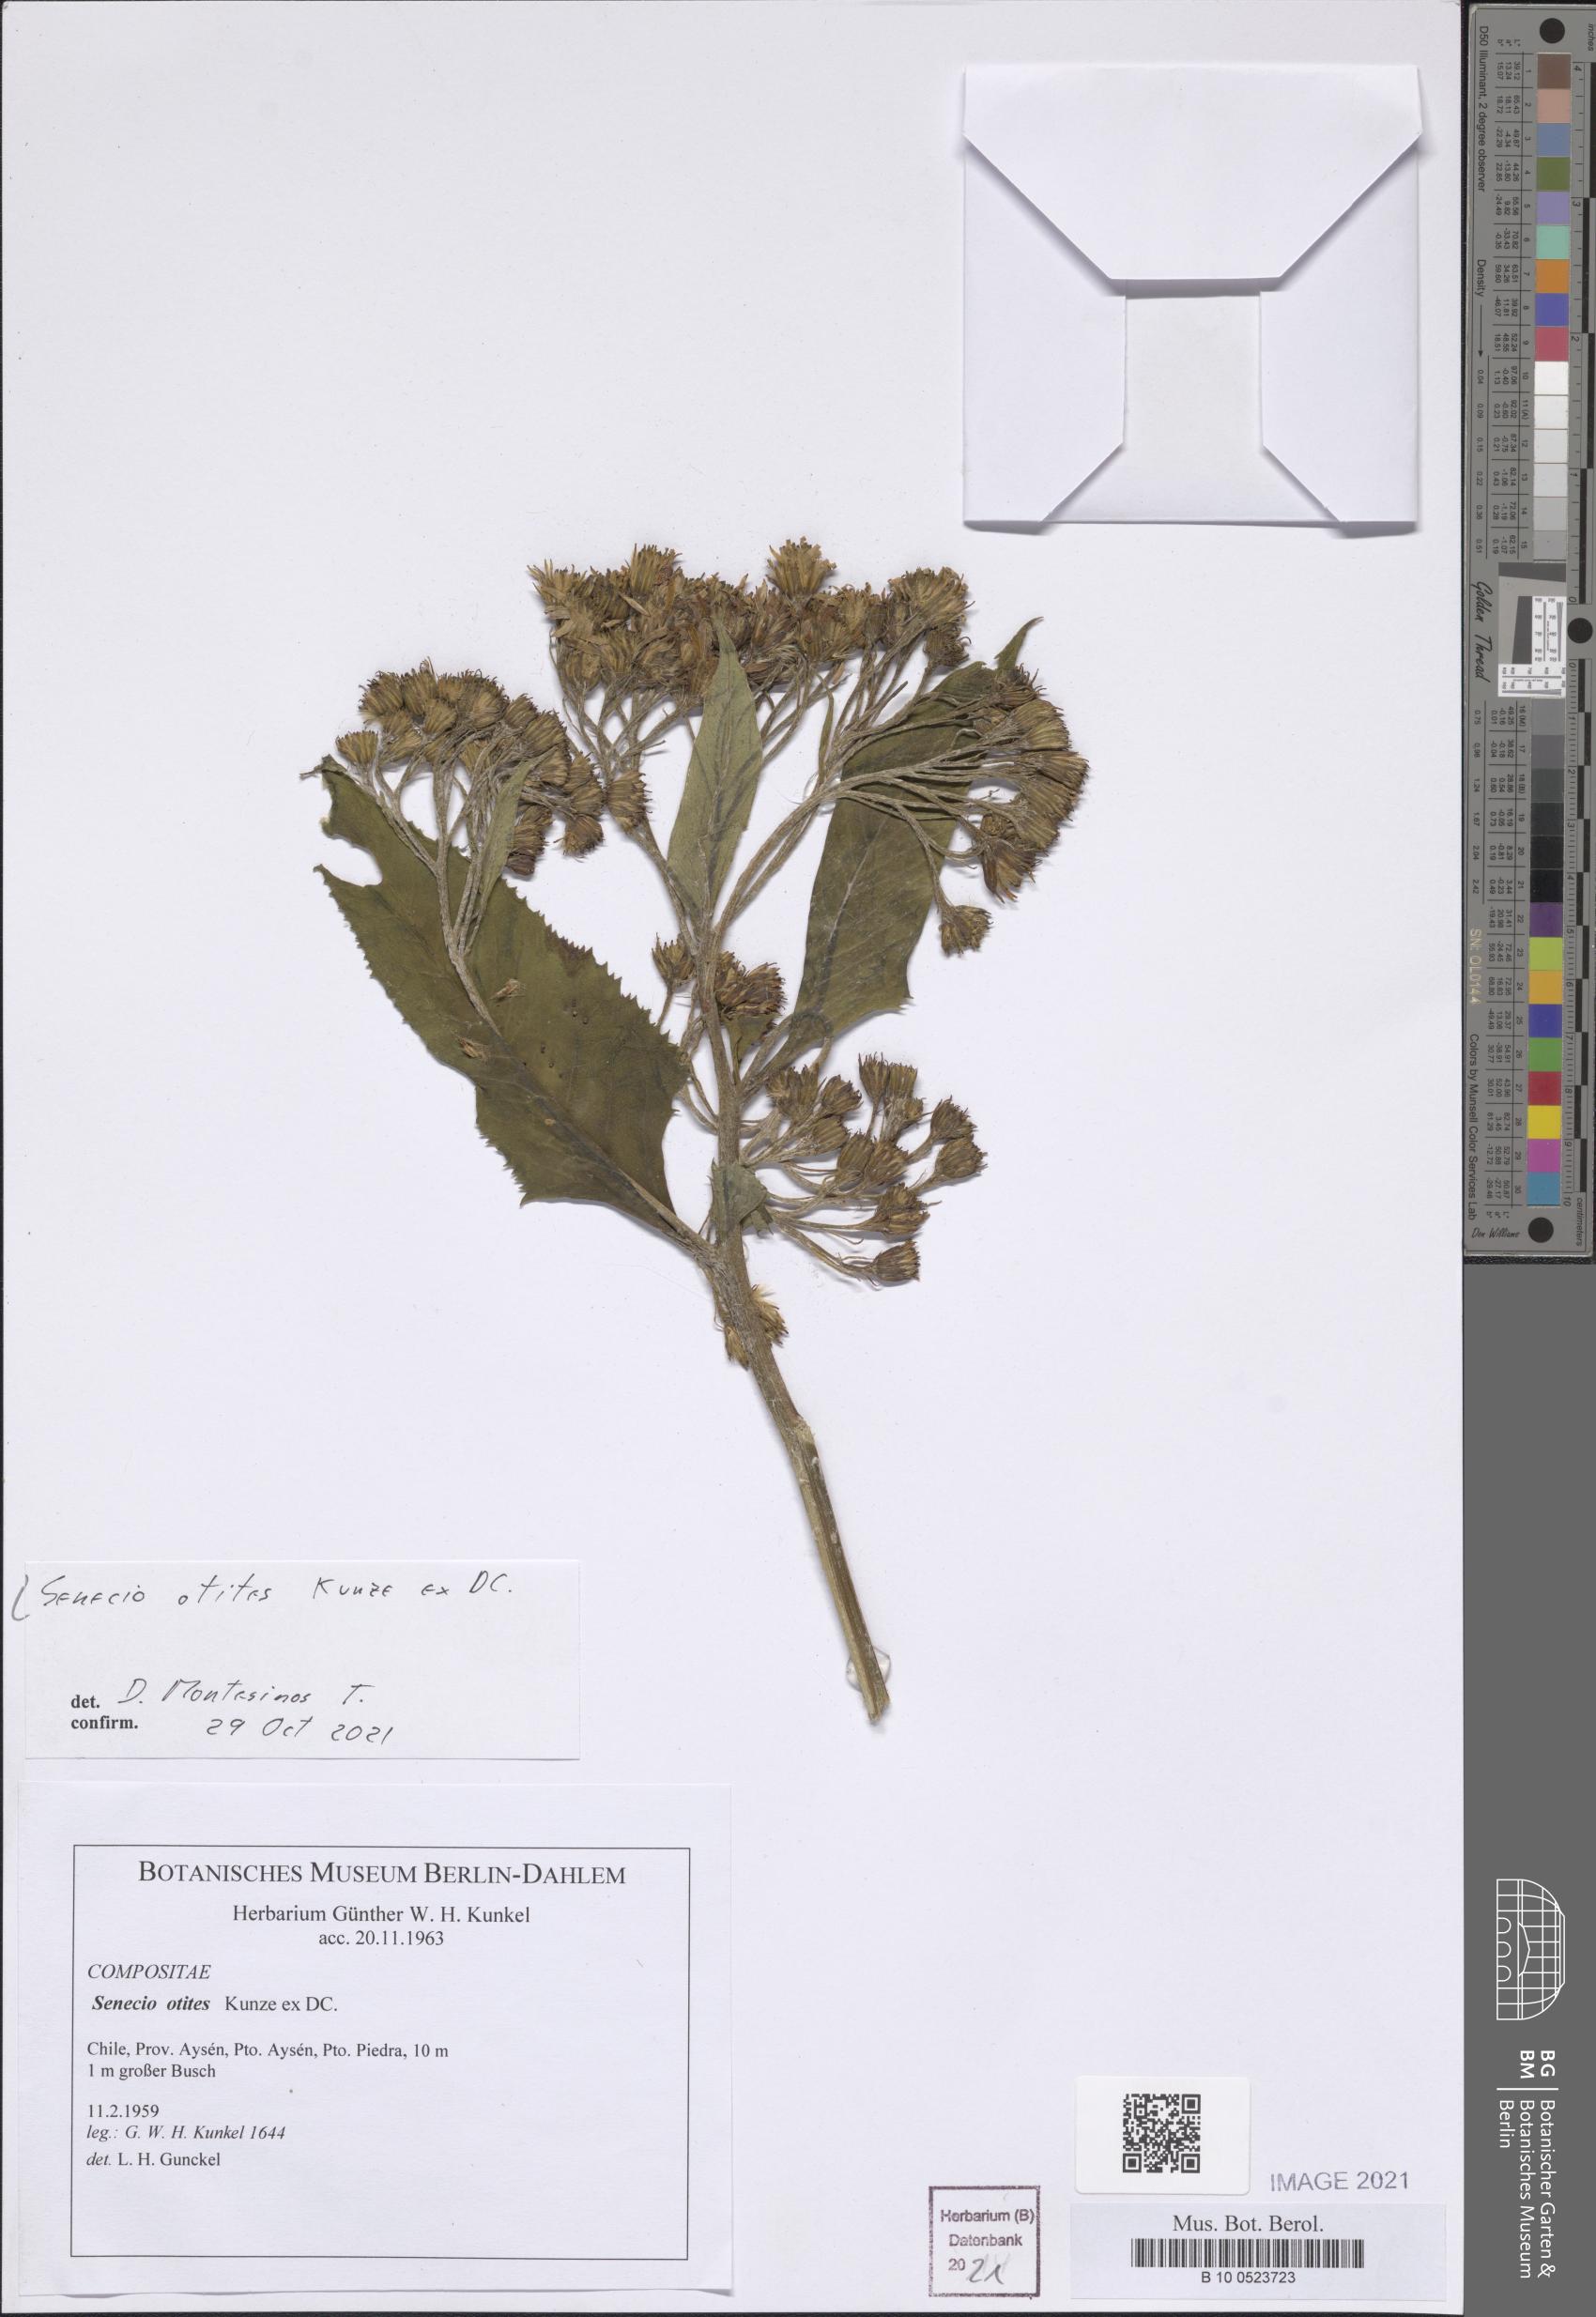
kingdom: Plantae
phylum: Tracheophyta
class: Magnoliopsida
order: Asterales
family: Asteraceae
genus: Senecio
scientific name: Senecio otites
